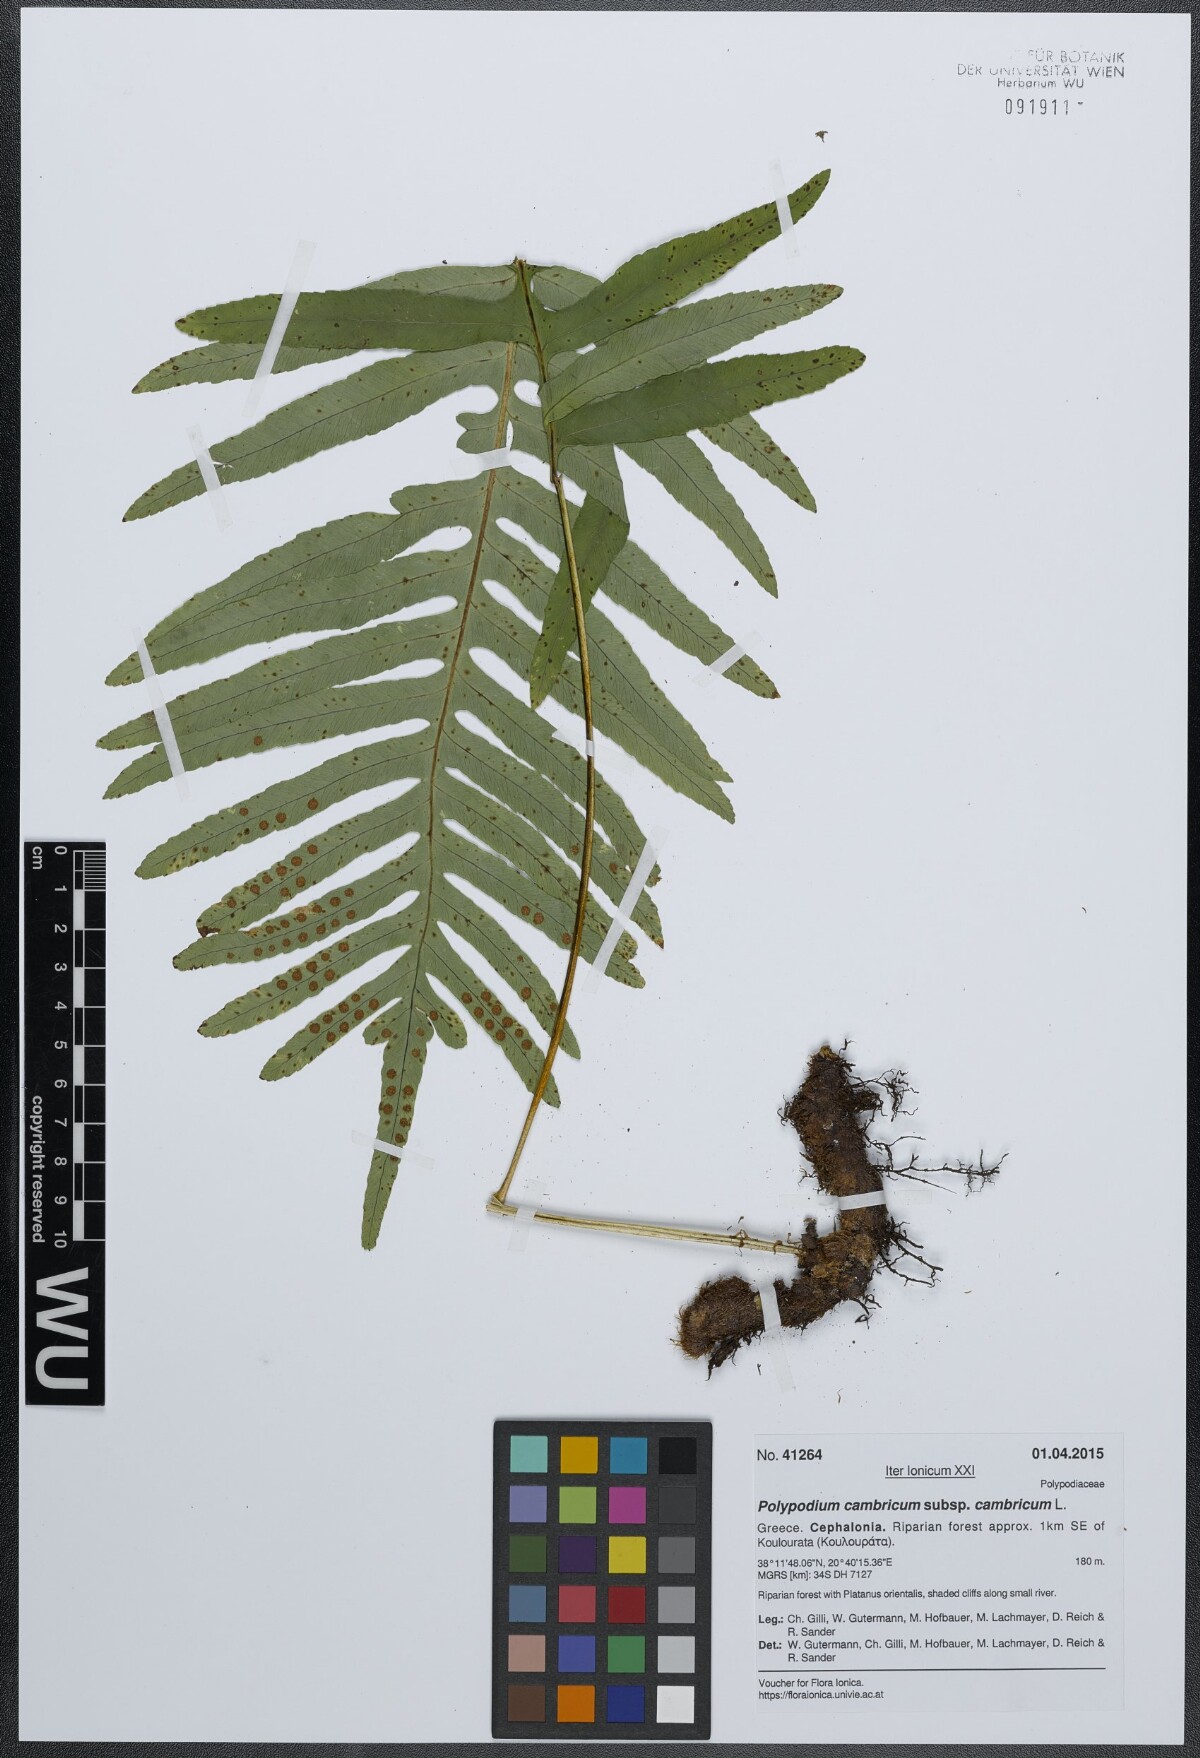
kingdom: Plantae
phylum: Tracheophyta
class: Polypodiopsida
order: Polypodiales
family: Polypodiaceae
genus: Polypodium
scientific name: Polypodium cambricum
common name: Southern polypody
